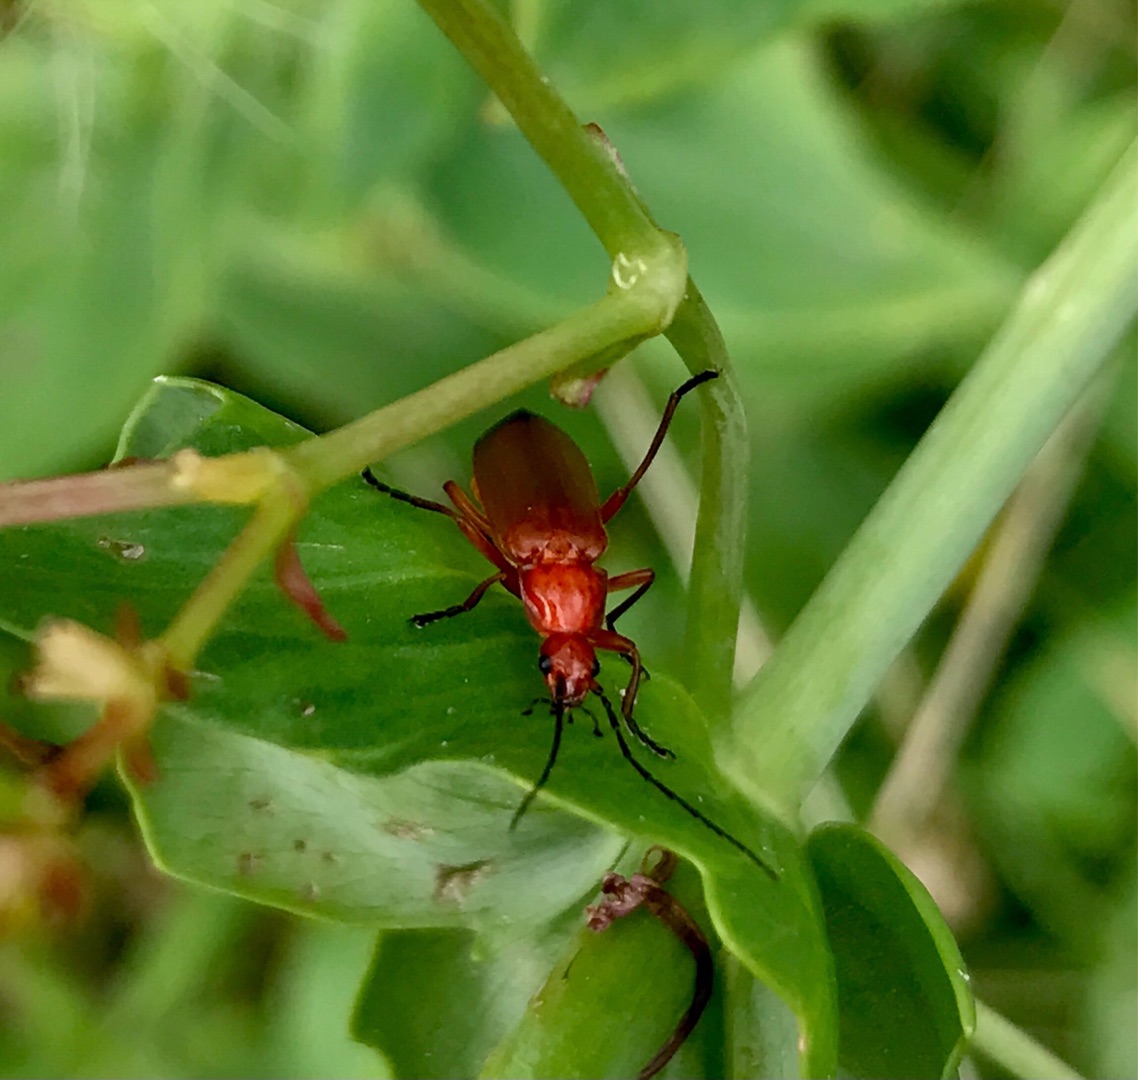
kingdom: Animalia
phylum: Arthropoda
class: Insecta
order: Coleoptera
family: Cantharidae
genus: Rhagonycha
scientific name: Rhagonycha fulva
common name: Præstebille
